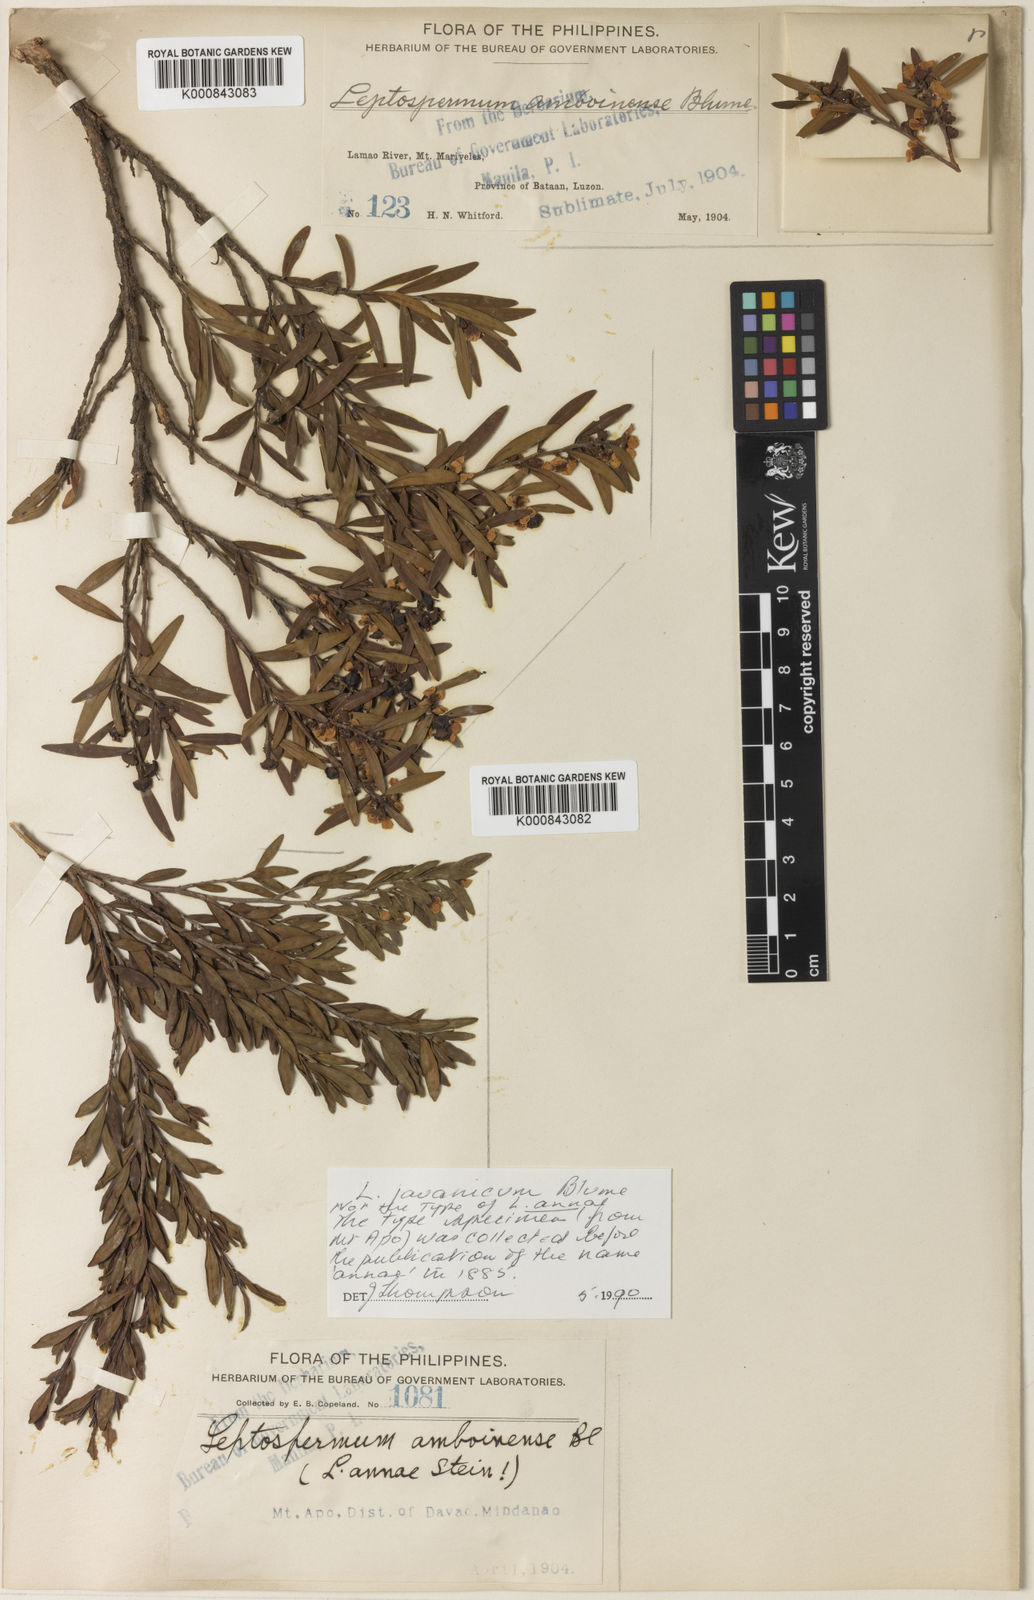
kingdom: Plantae
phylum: Tracheophyta
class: Magnoliopsida
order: Myrtales
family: Myrtaceae
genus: Leptospermum
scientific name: Leptospermum javanicum
